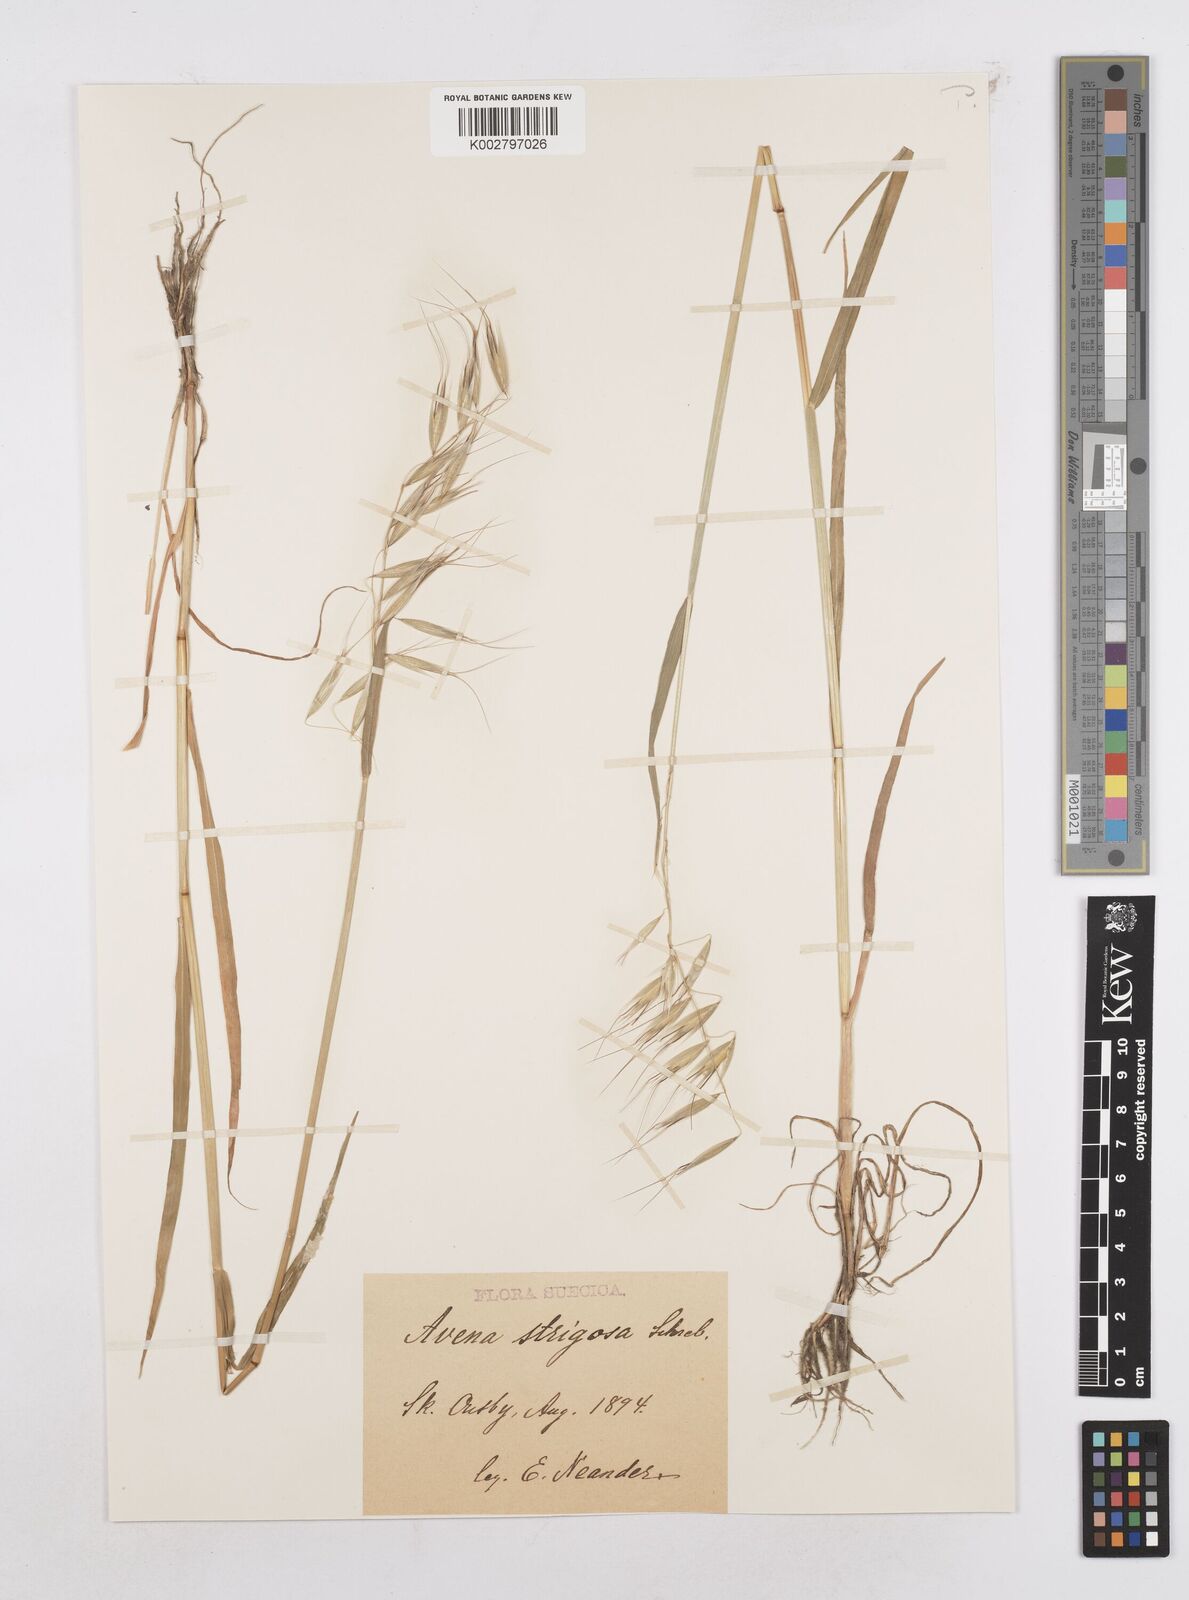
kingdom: Plantae
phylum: Tracheophyta
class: Liliopsida
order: Poales
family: Poaceae
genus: Avena
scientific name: Avena strigosa
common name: Bristle oat
